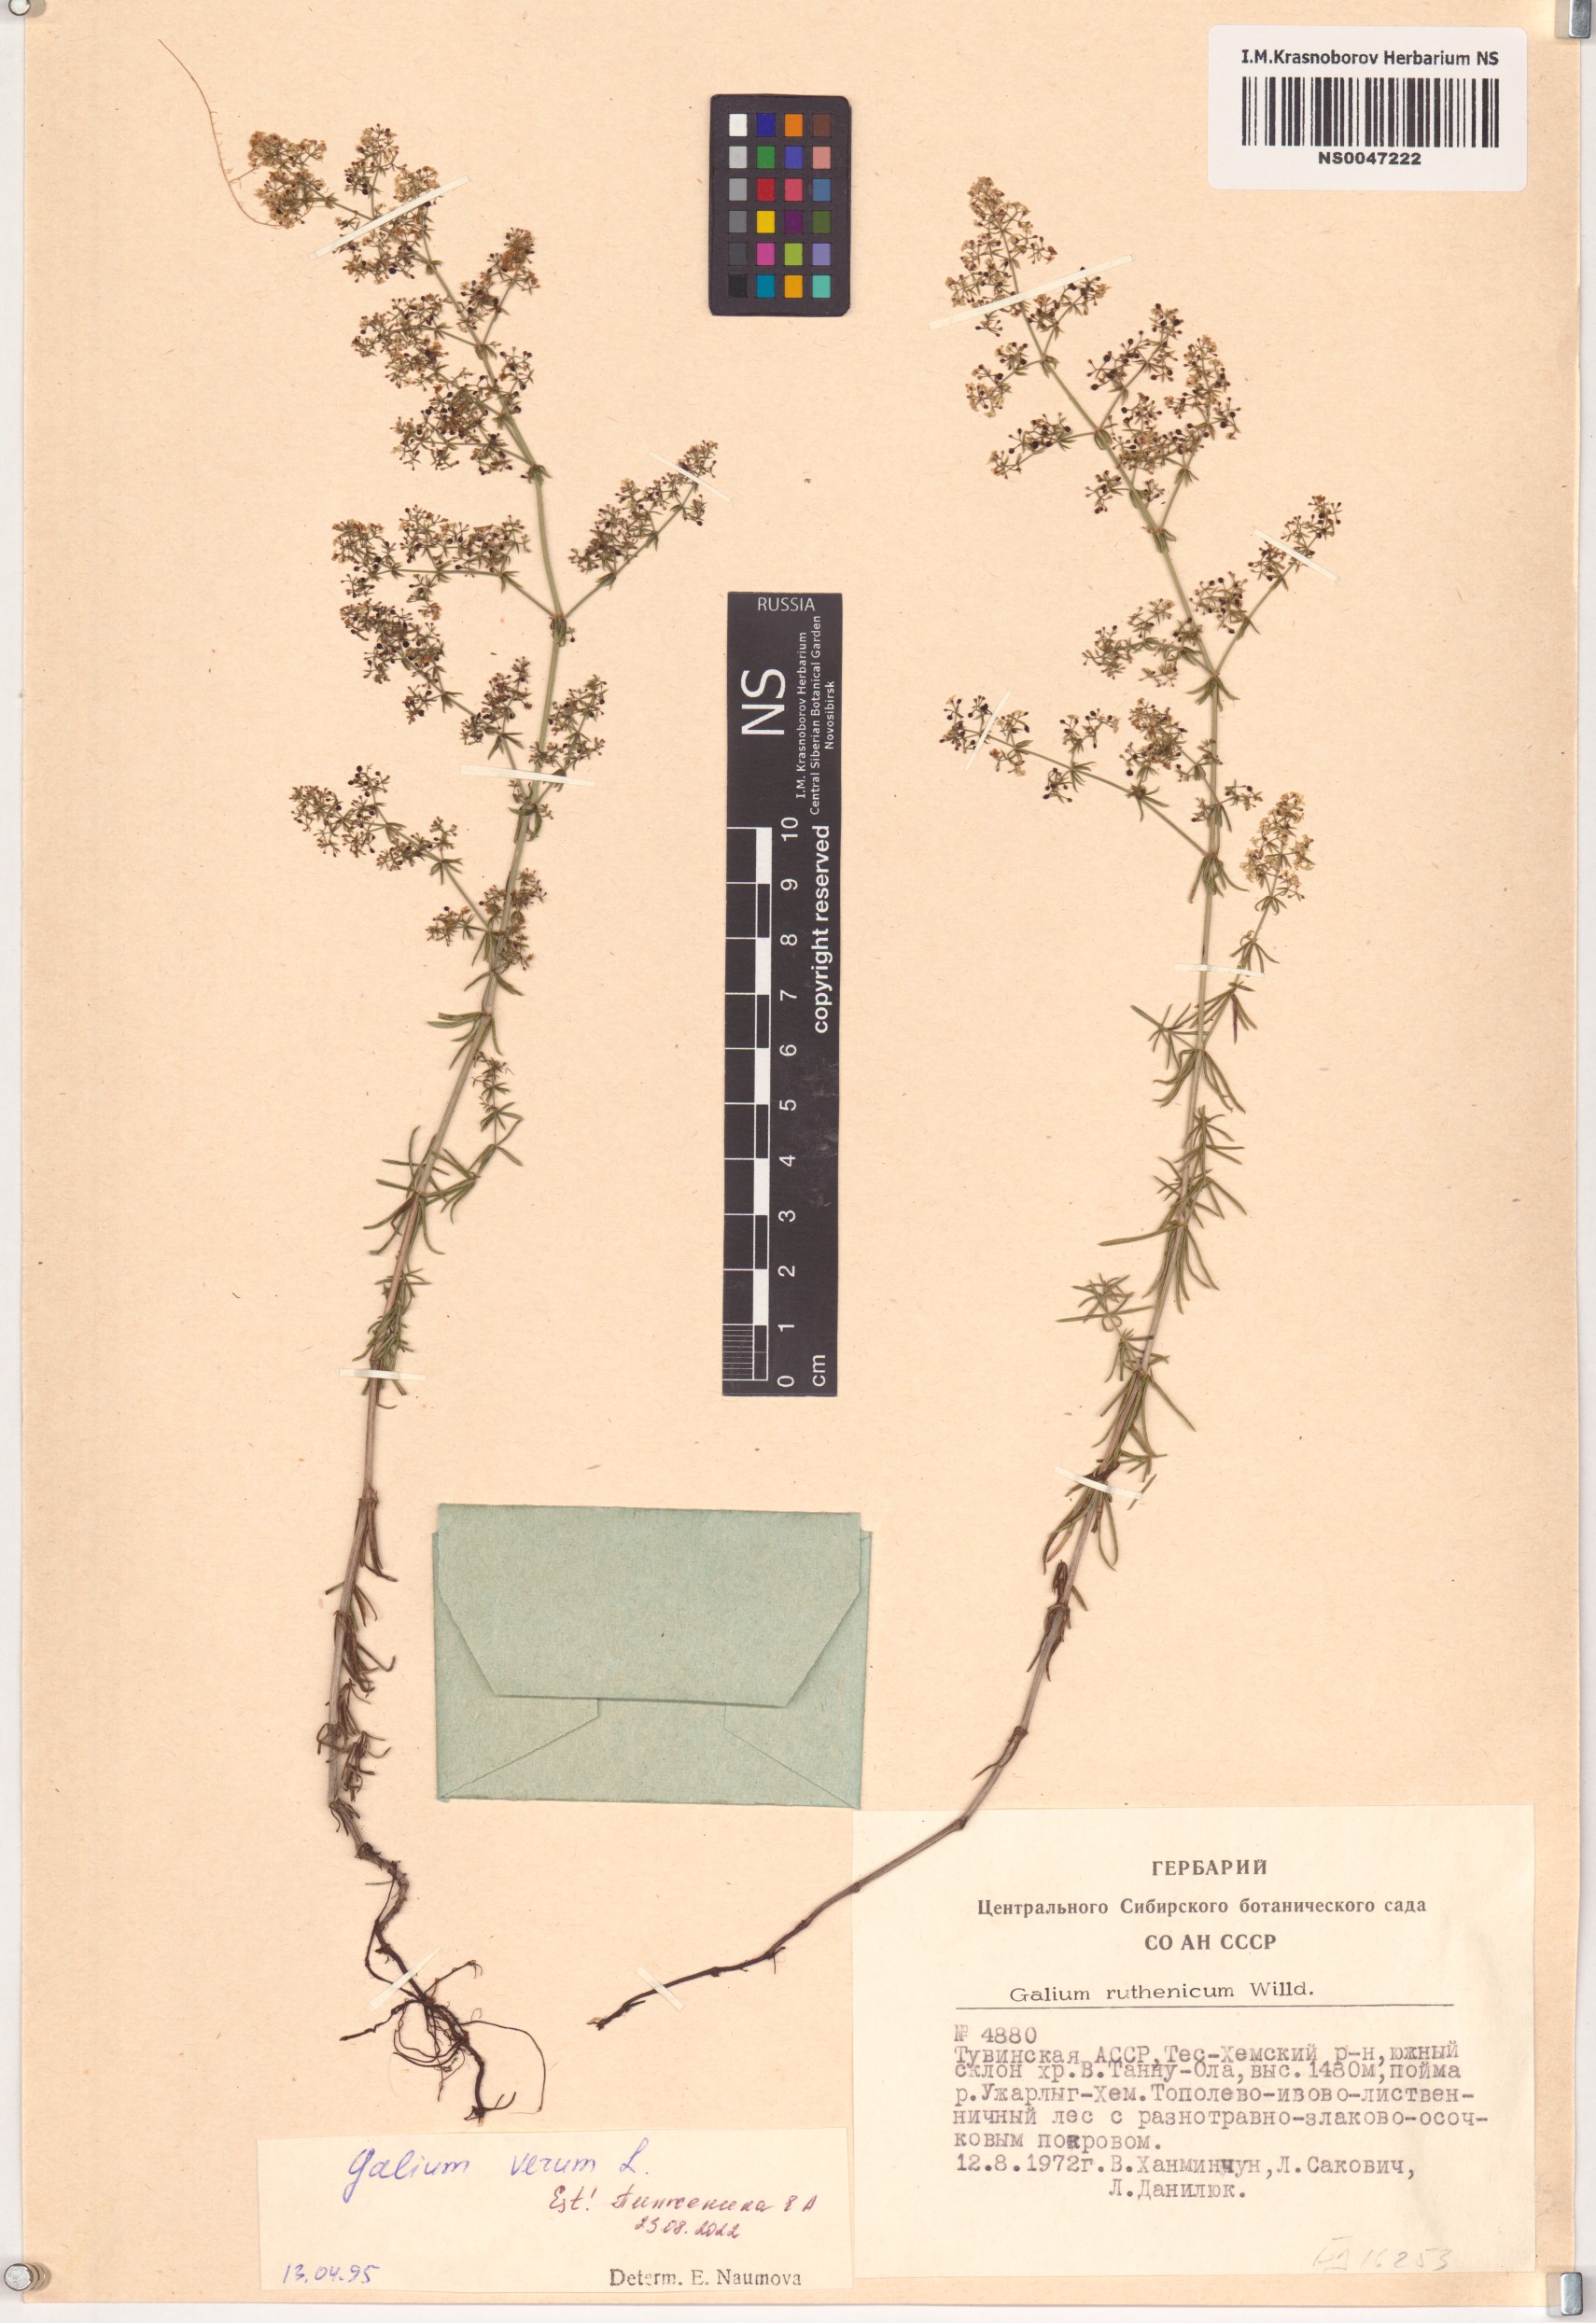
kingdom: Plantae
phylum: Tracheophyta
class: Magnoliopsida
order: Gentianales
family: Rubiaceae
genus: Galium
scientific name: Galium verum
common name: Lady's bedstraw
